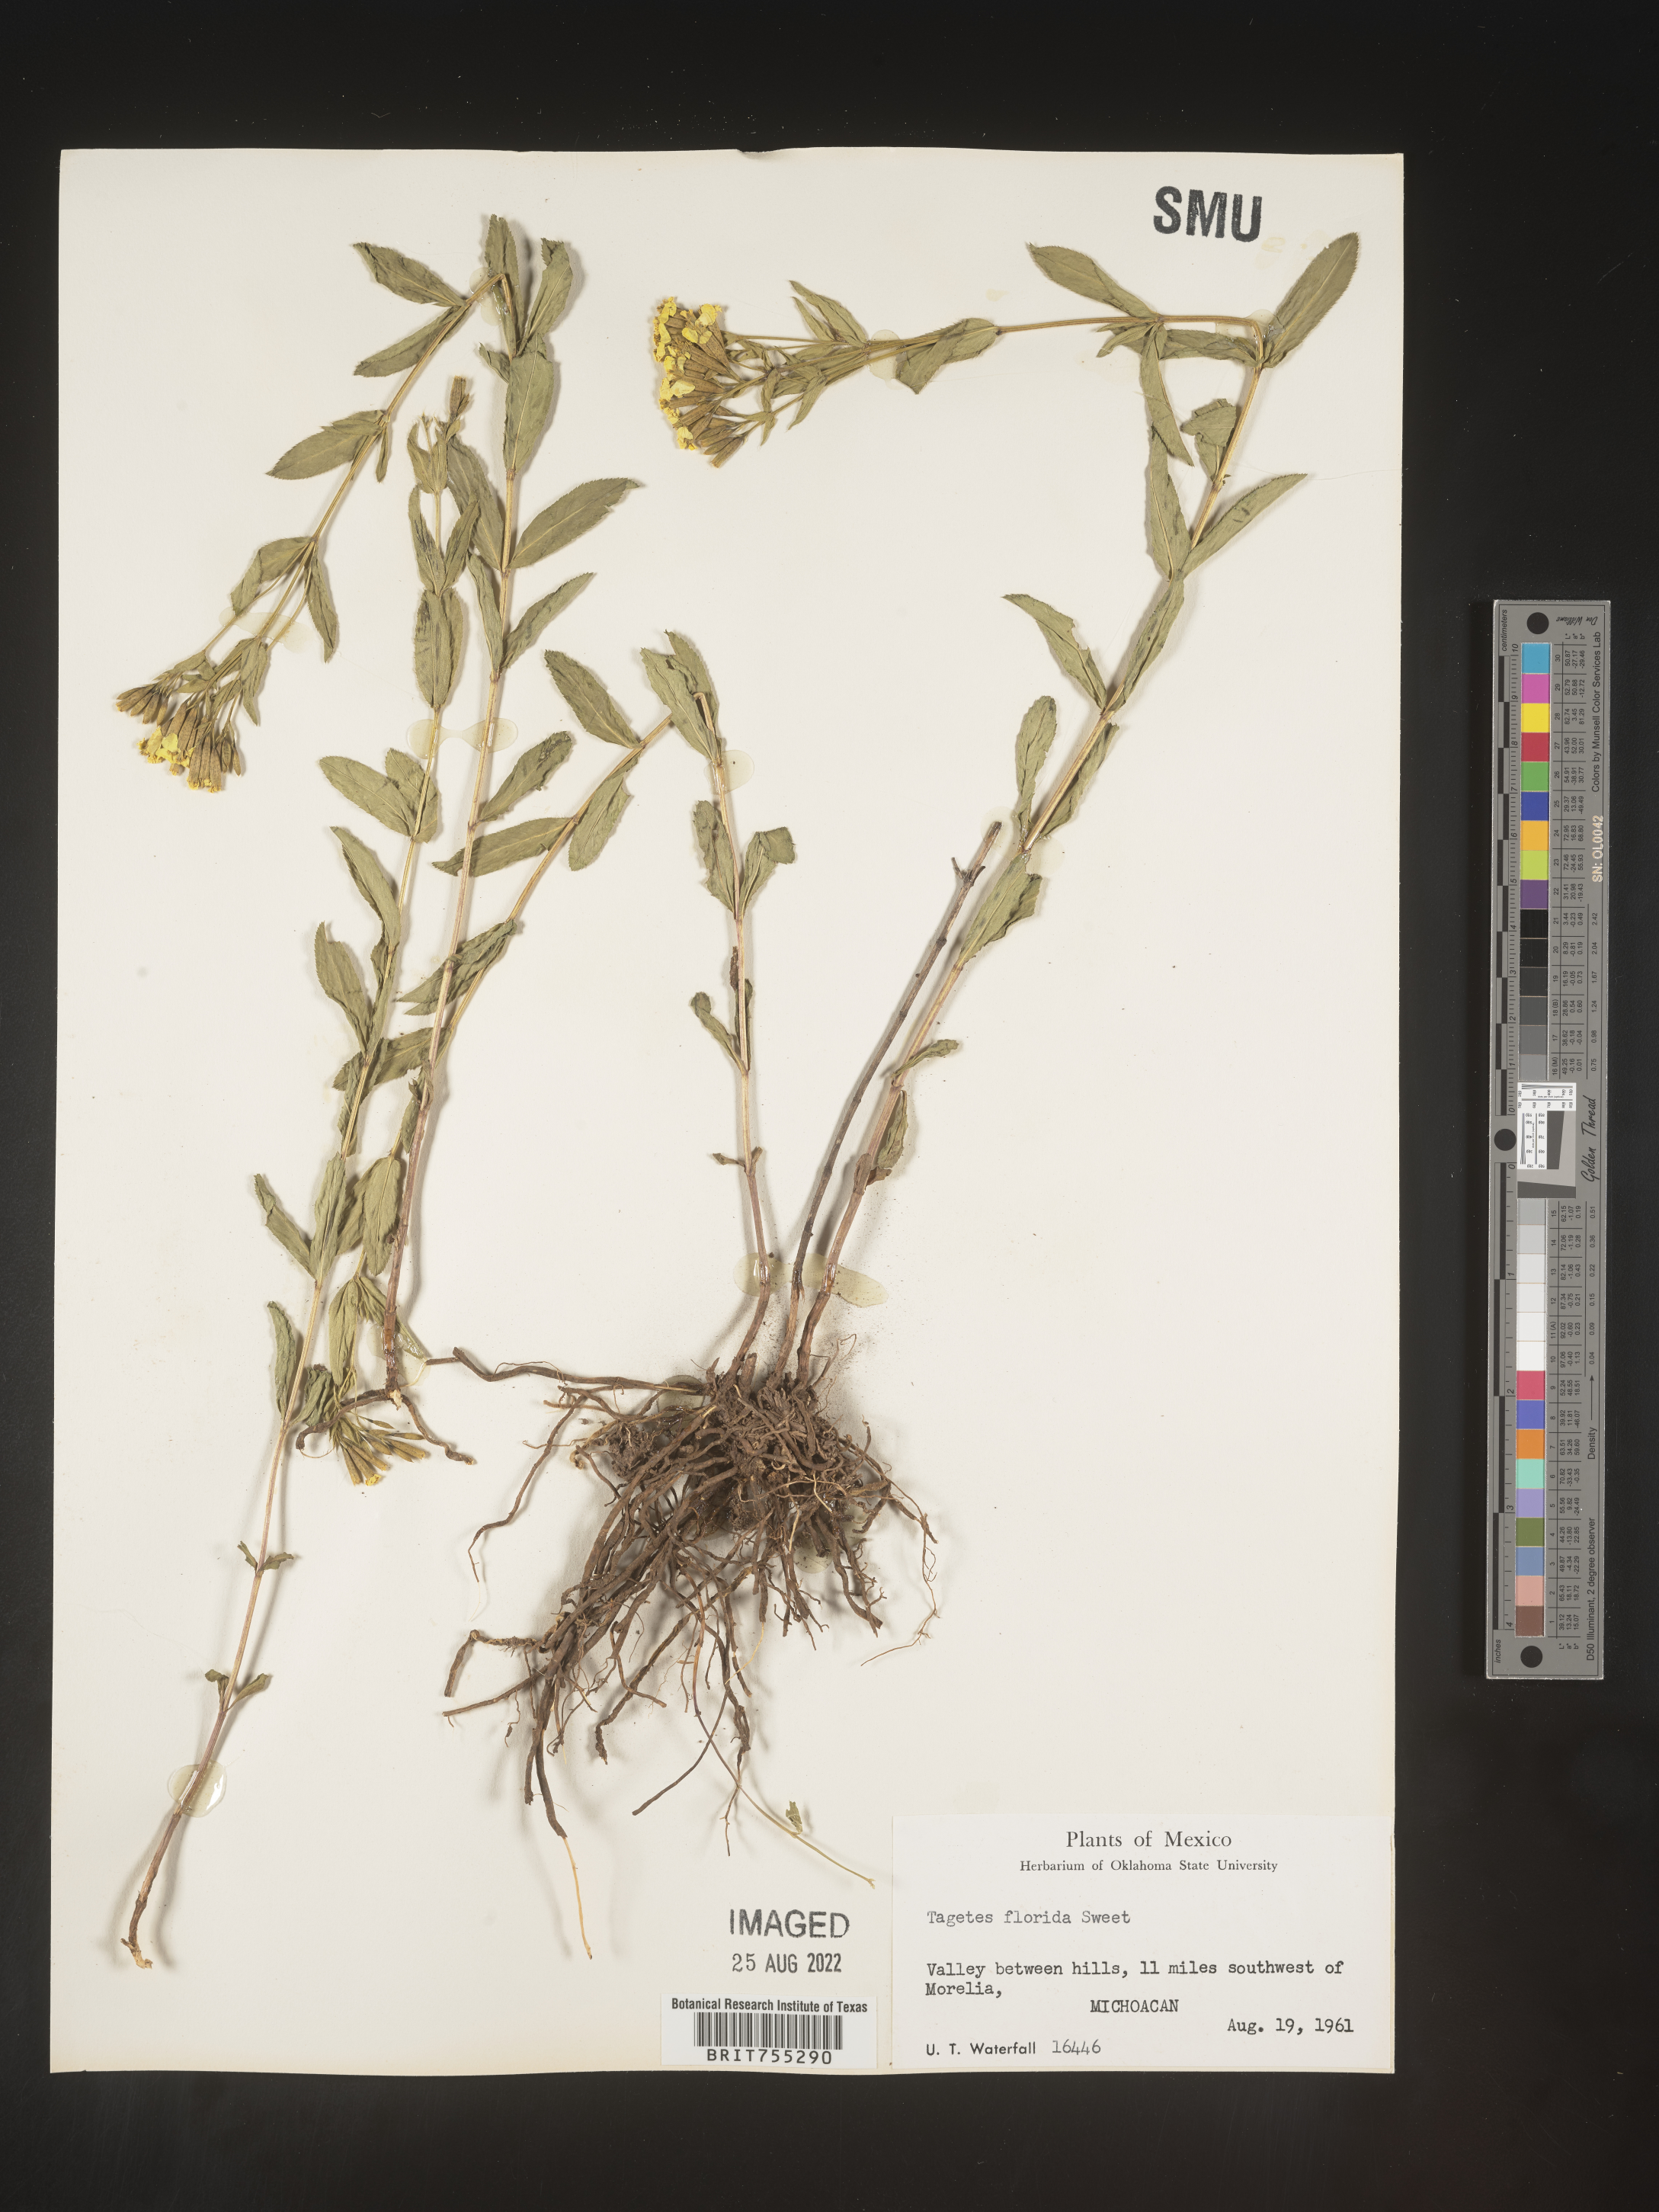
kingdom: Plantae
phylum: Tracheophyta
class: Magnoliopsida
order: Asterales
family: Asteraceae
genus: Tagetes
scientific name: Tagetes
